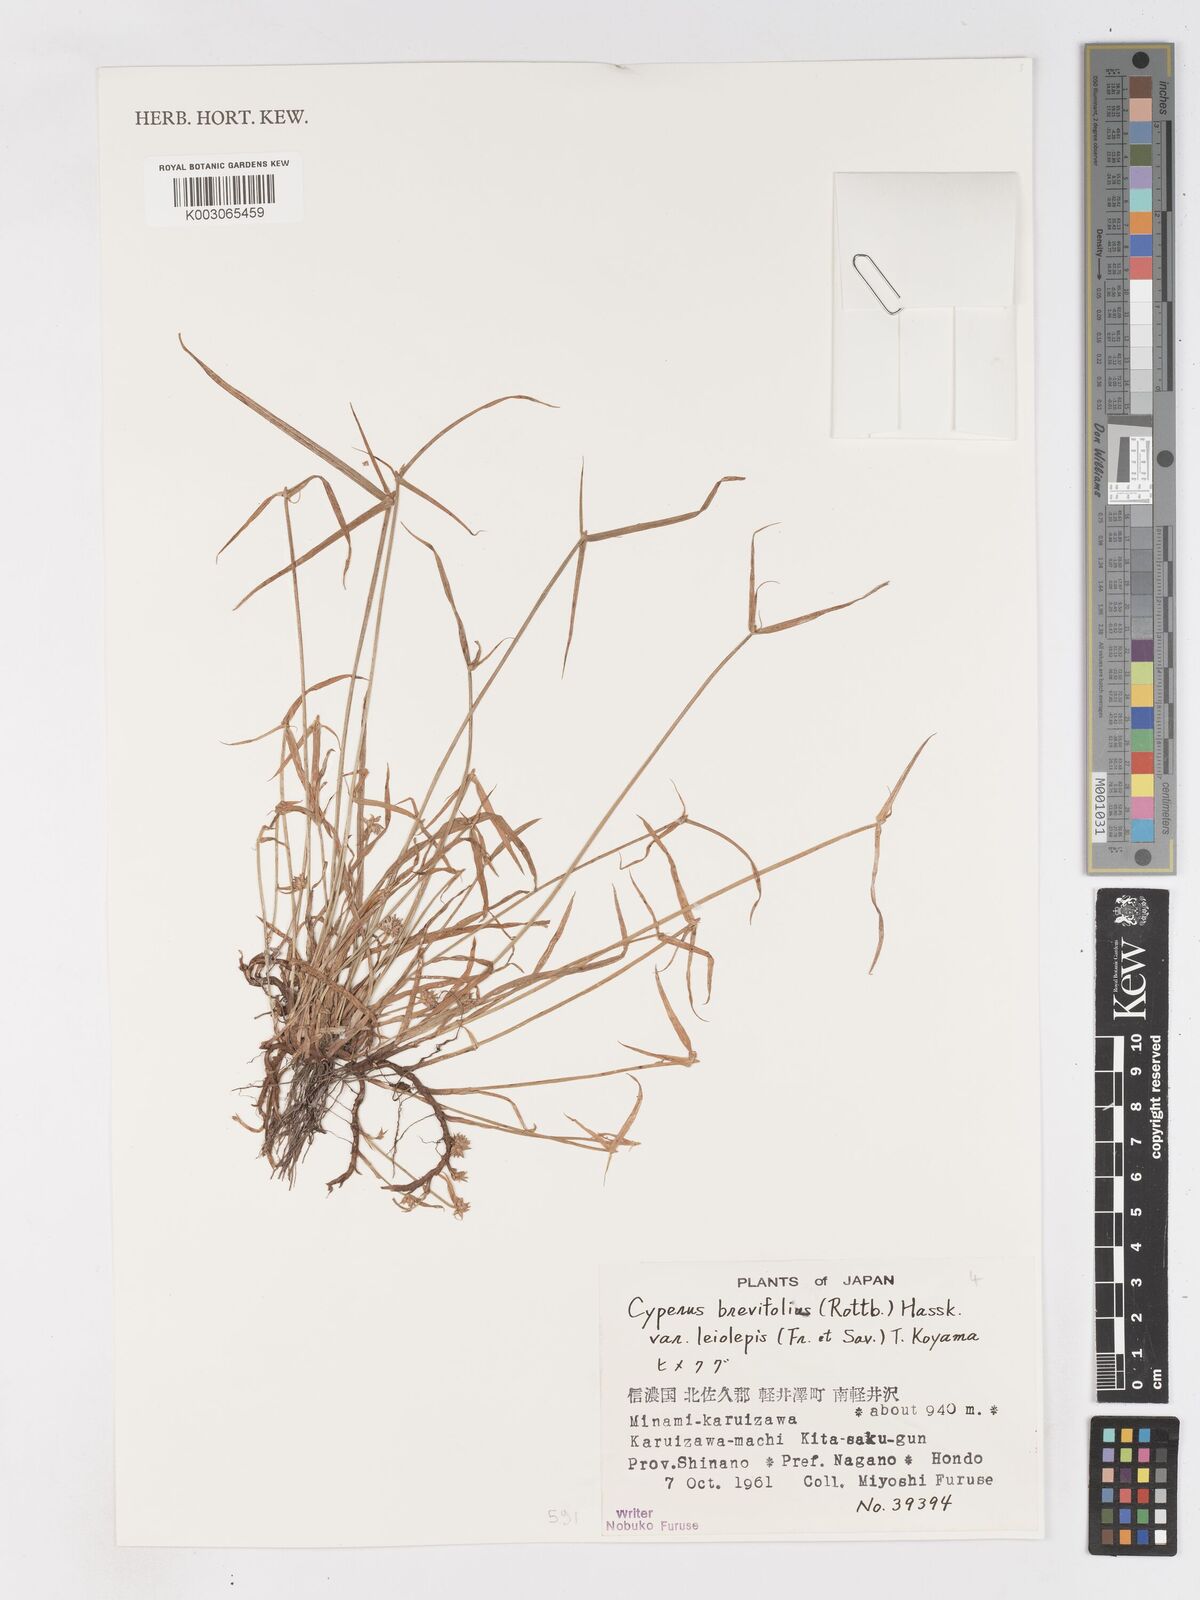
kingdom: Plantae
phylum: Tracheophyta
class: Liliopsida
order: Poales
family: Cyperaceae
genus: Cyperus
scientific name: Cyperus brevifolius
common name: Globe kyllinga
